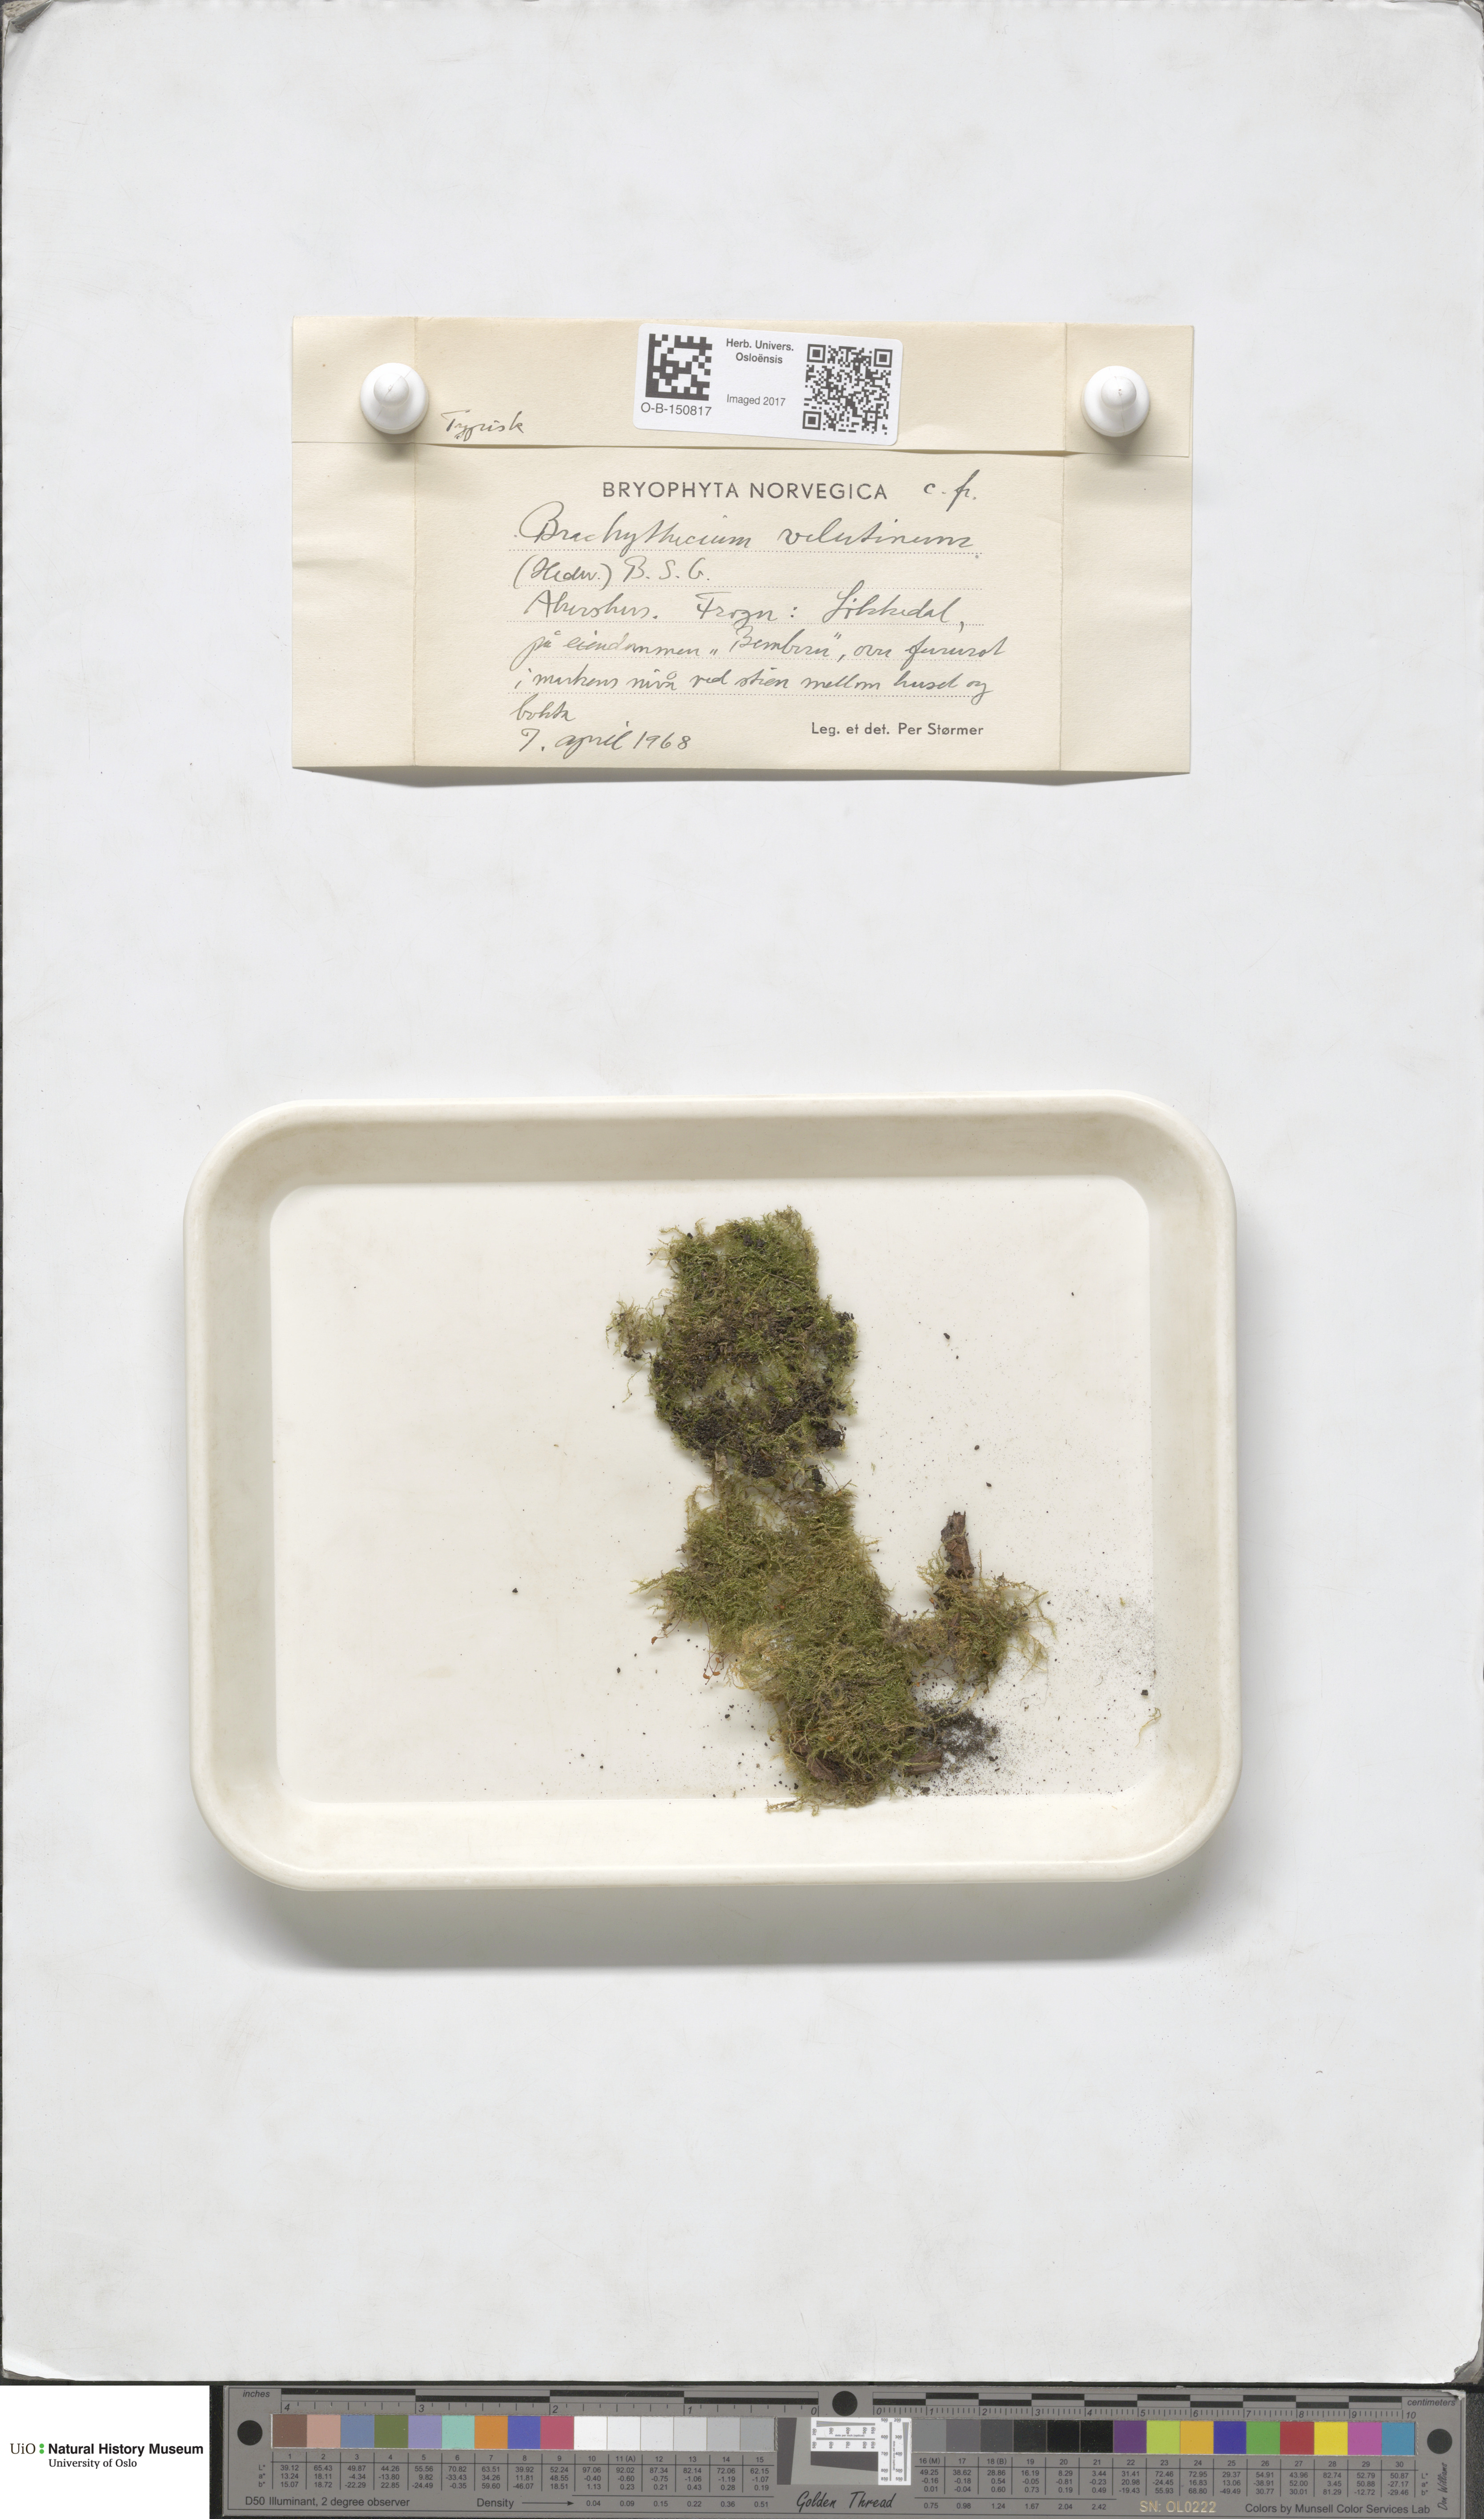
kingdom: Plantae
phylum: Bryophyta
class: Bryopsida
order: Hypnales
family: Brachytheciaceae
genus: Brachytheciastrum
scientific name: Brachytheciastrum velutinum
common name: Velvet feather-moss
